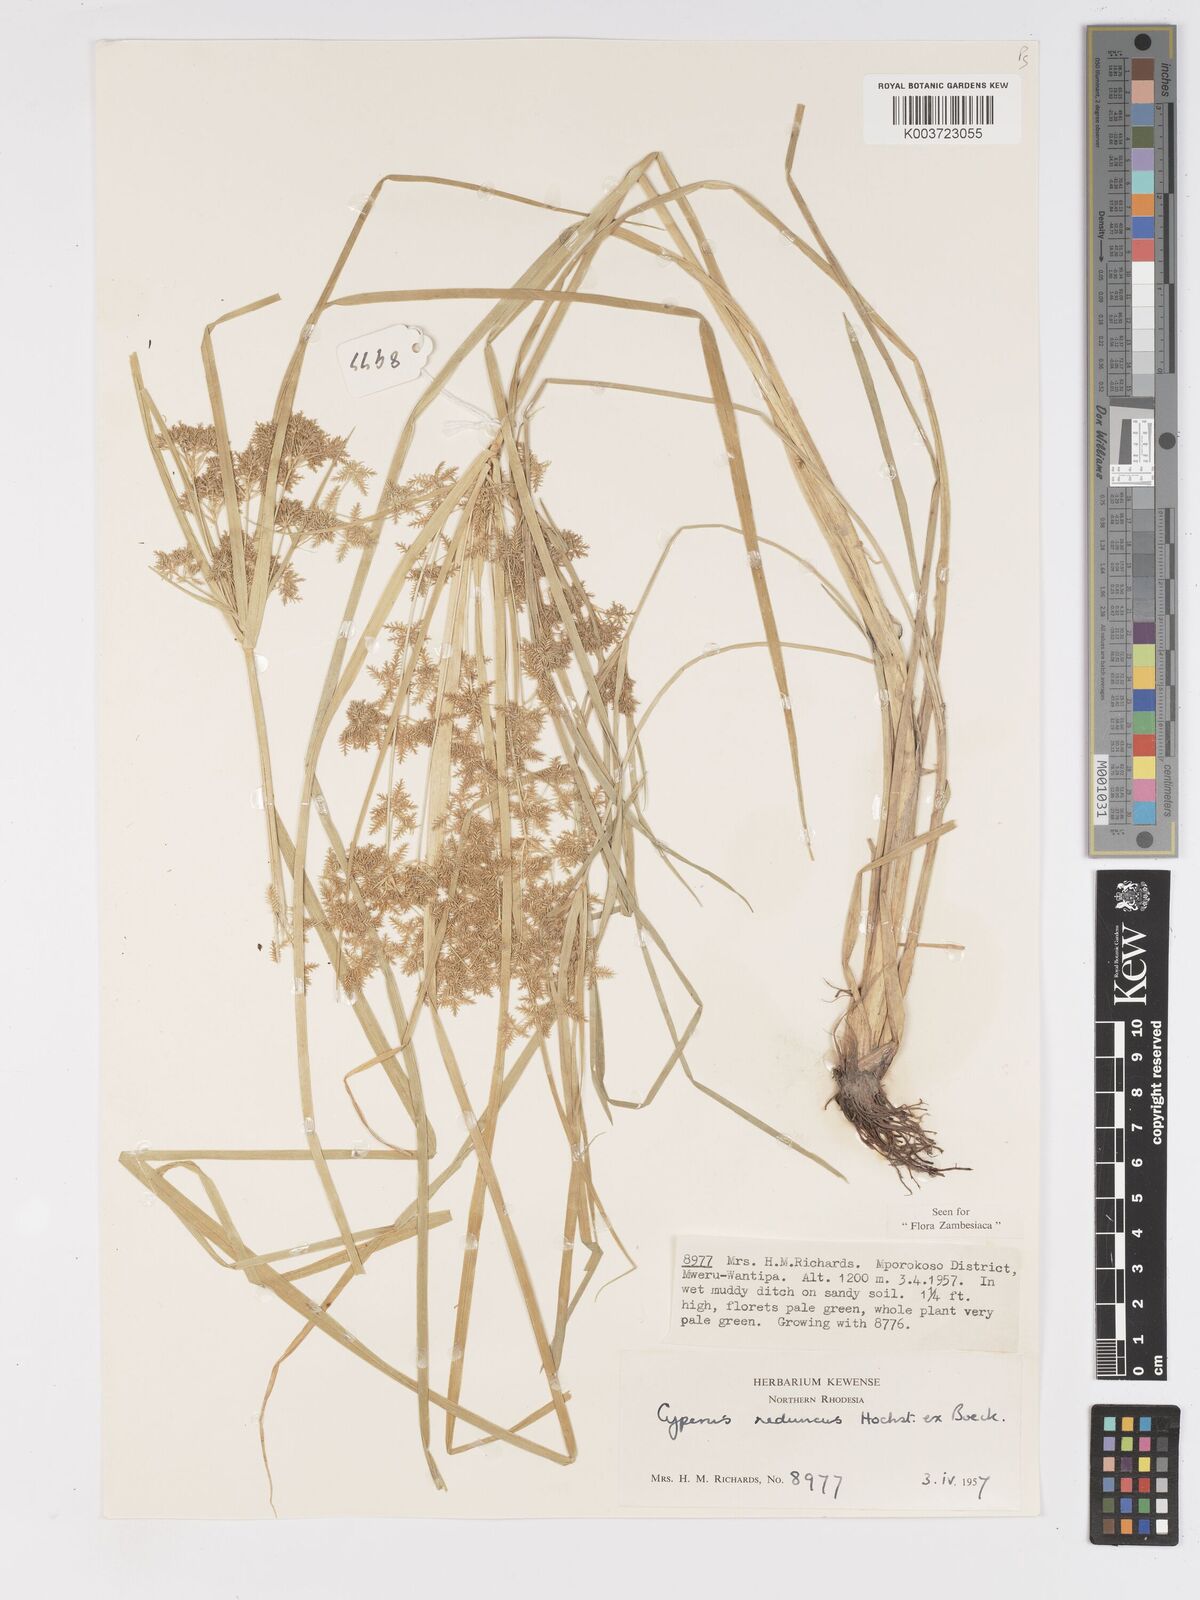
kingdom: Plantae
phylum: Tracheophyta
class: Liliopsida
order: Poales
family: Cyperaceae
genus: Cyperus
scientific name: Cyperus reduncus
